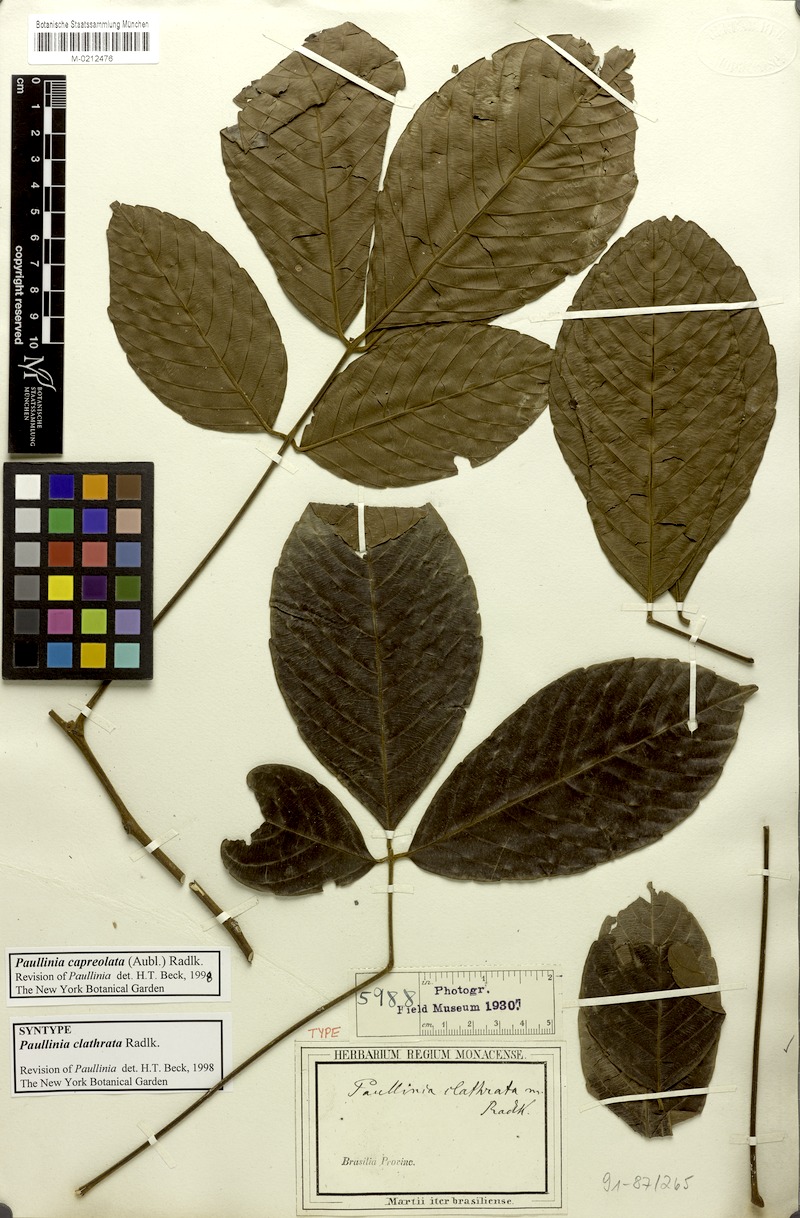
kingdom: Plantae
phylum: Tracheophyta
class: Magnoliopsida
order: Sapindales
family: Sapindaceae
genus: Paullinia
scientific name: Paullinia capreolata
